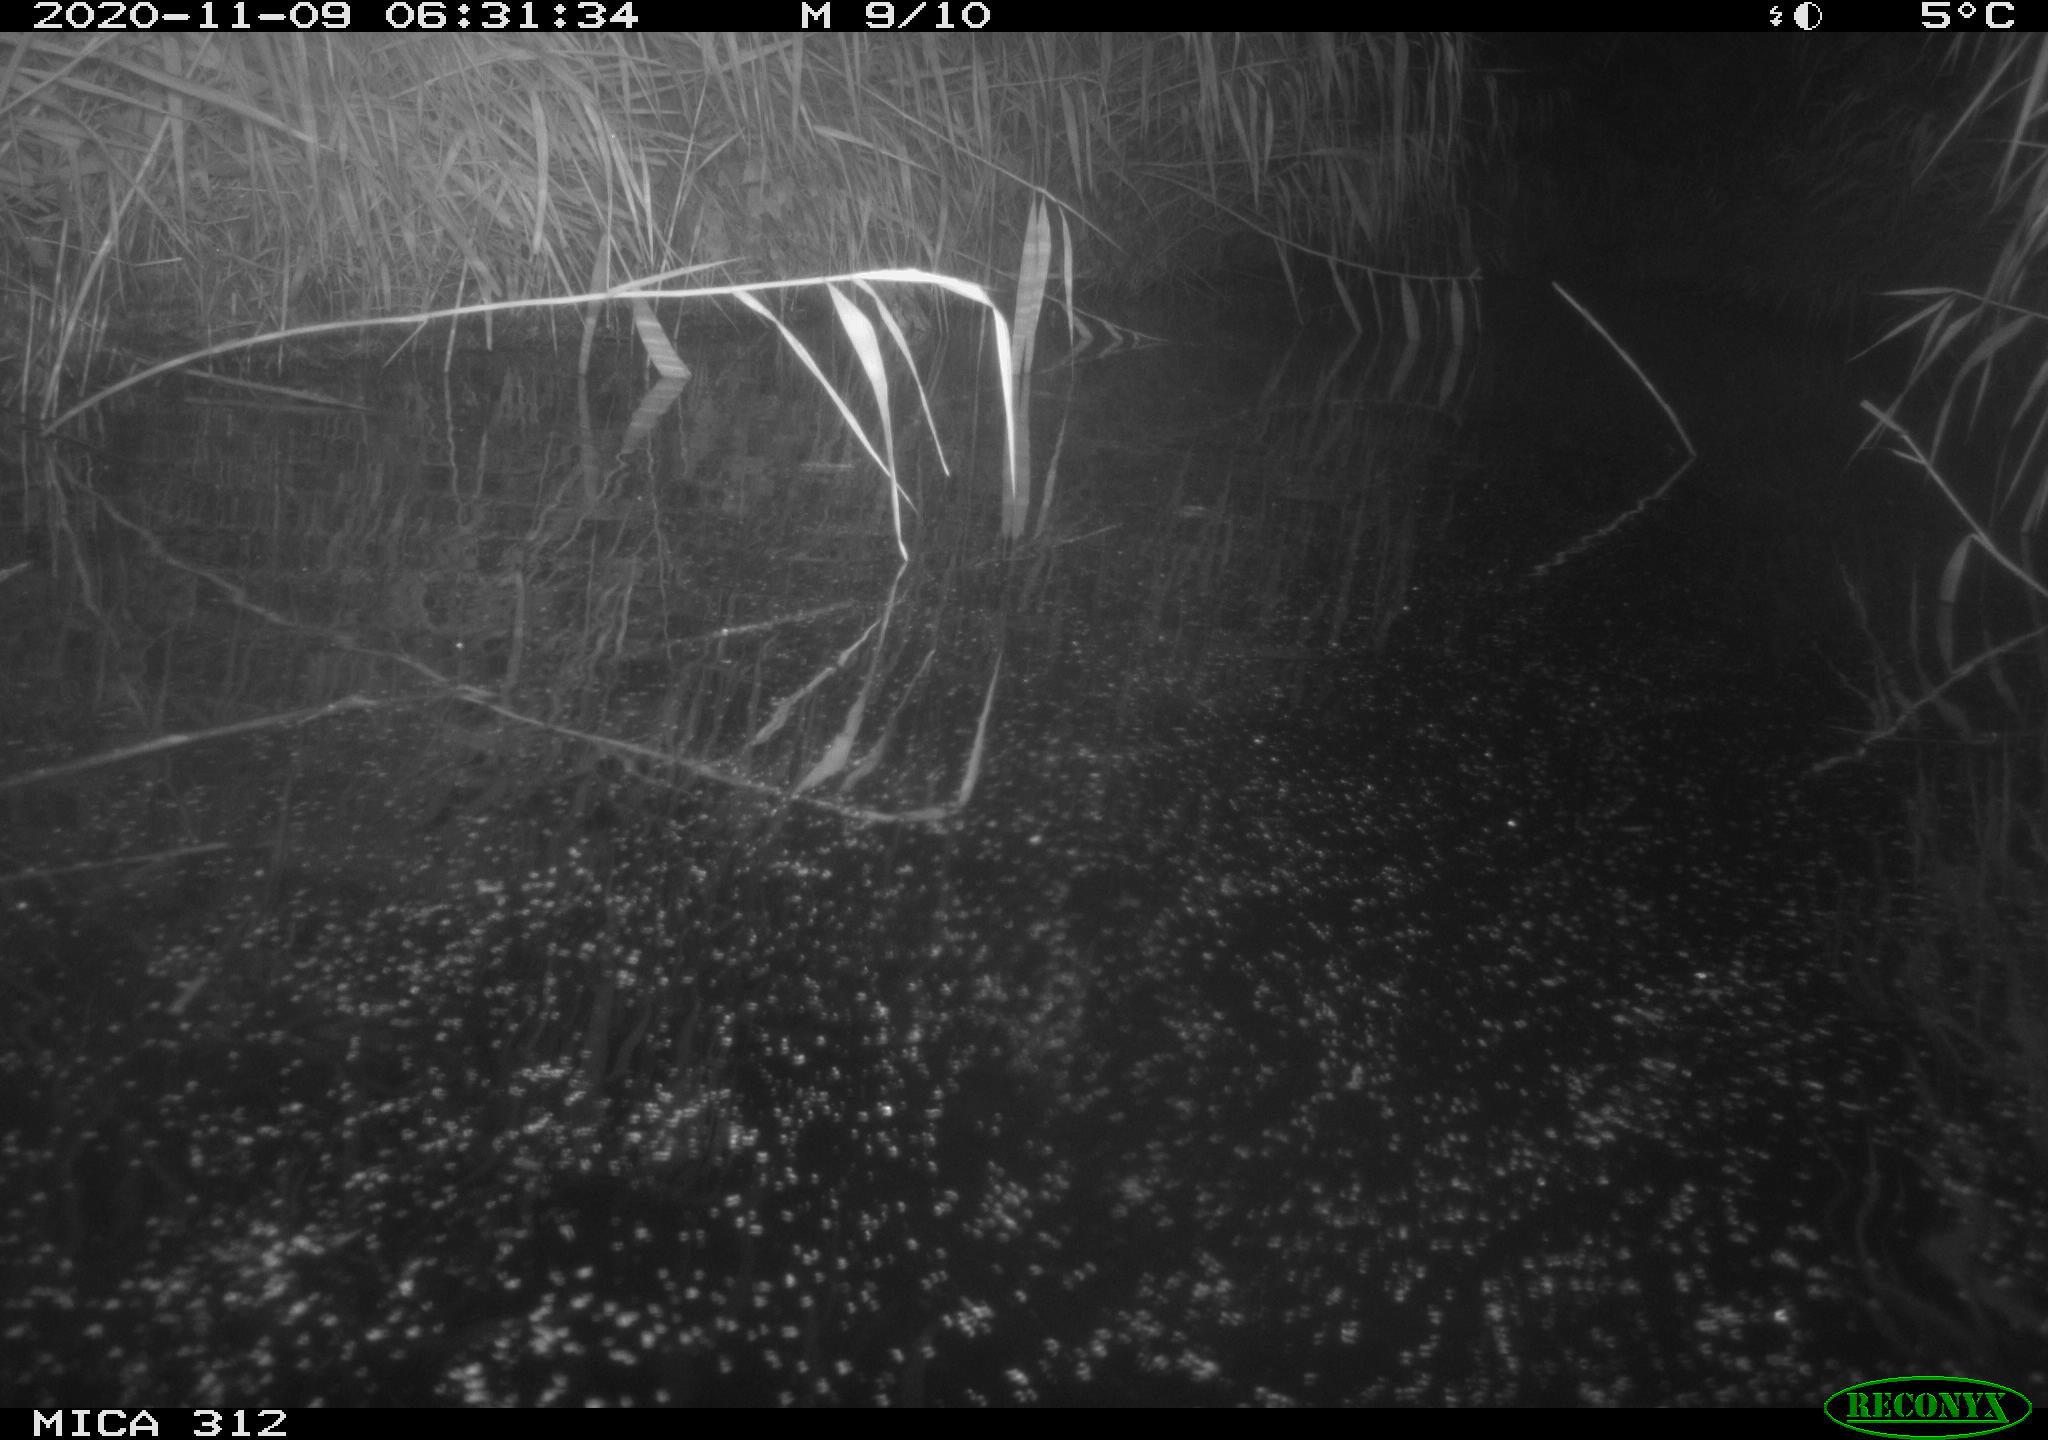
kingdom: Animalia
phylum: Chordata
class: Mammalia
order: Rodentia
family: Muridae
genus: Rattus
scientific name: Rattus norvegicus
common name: Brown rat
